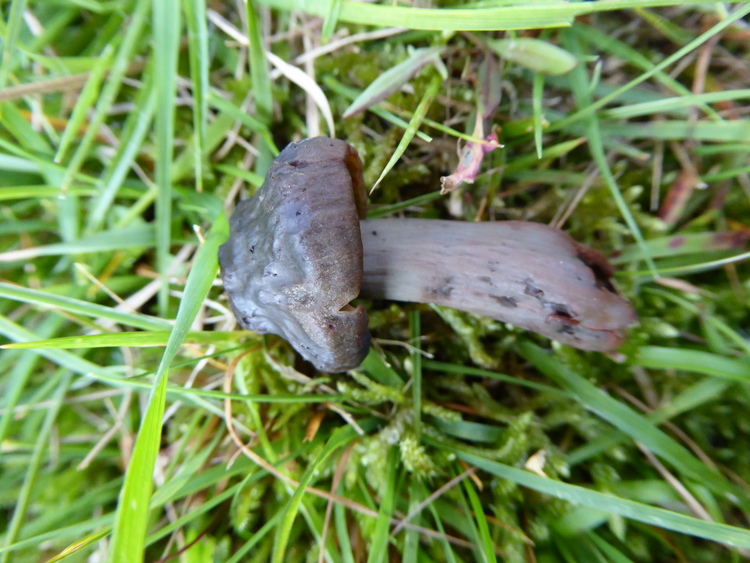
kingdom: Fungi
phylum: Basidiomycota
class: Agaricomycetes
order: Agaricales
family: Hygrophoraceae
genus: Neohygrocybe
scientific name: Neohygrocybe ovina
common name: rødmende vokshat
